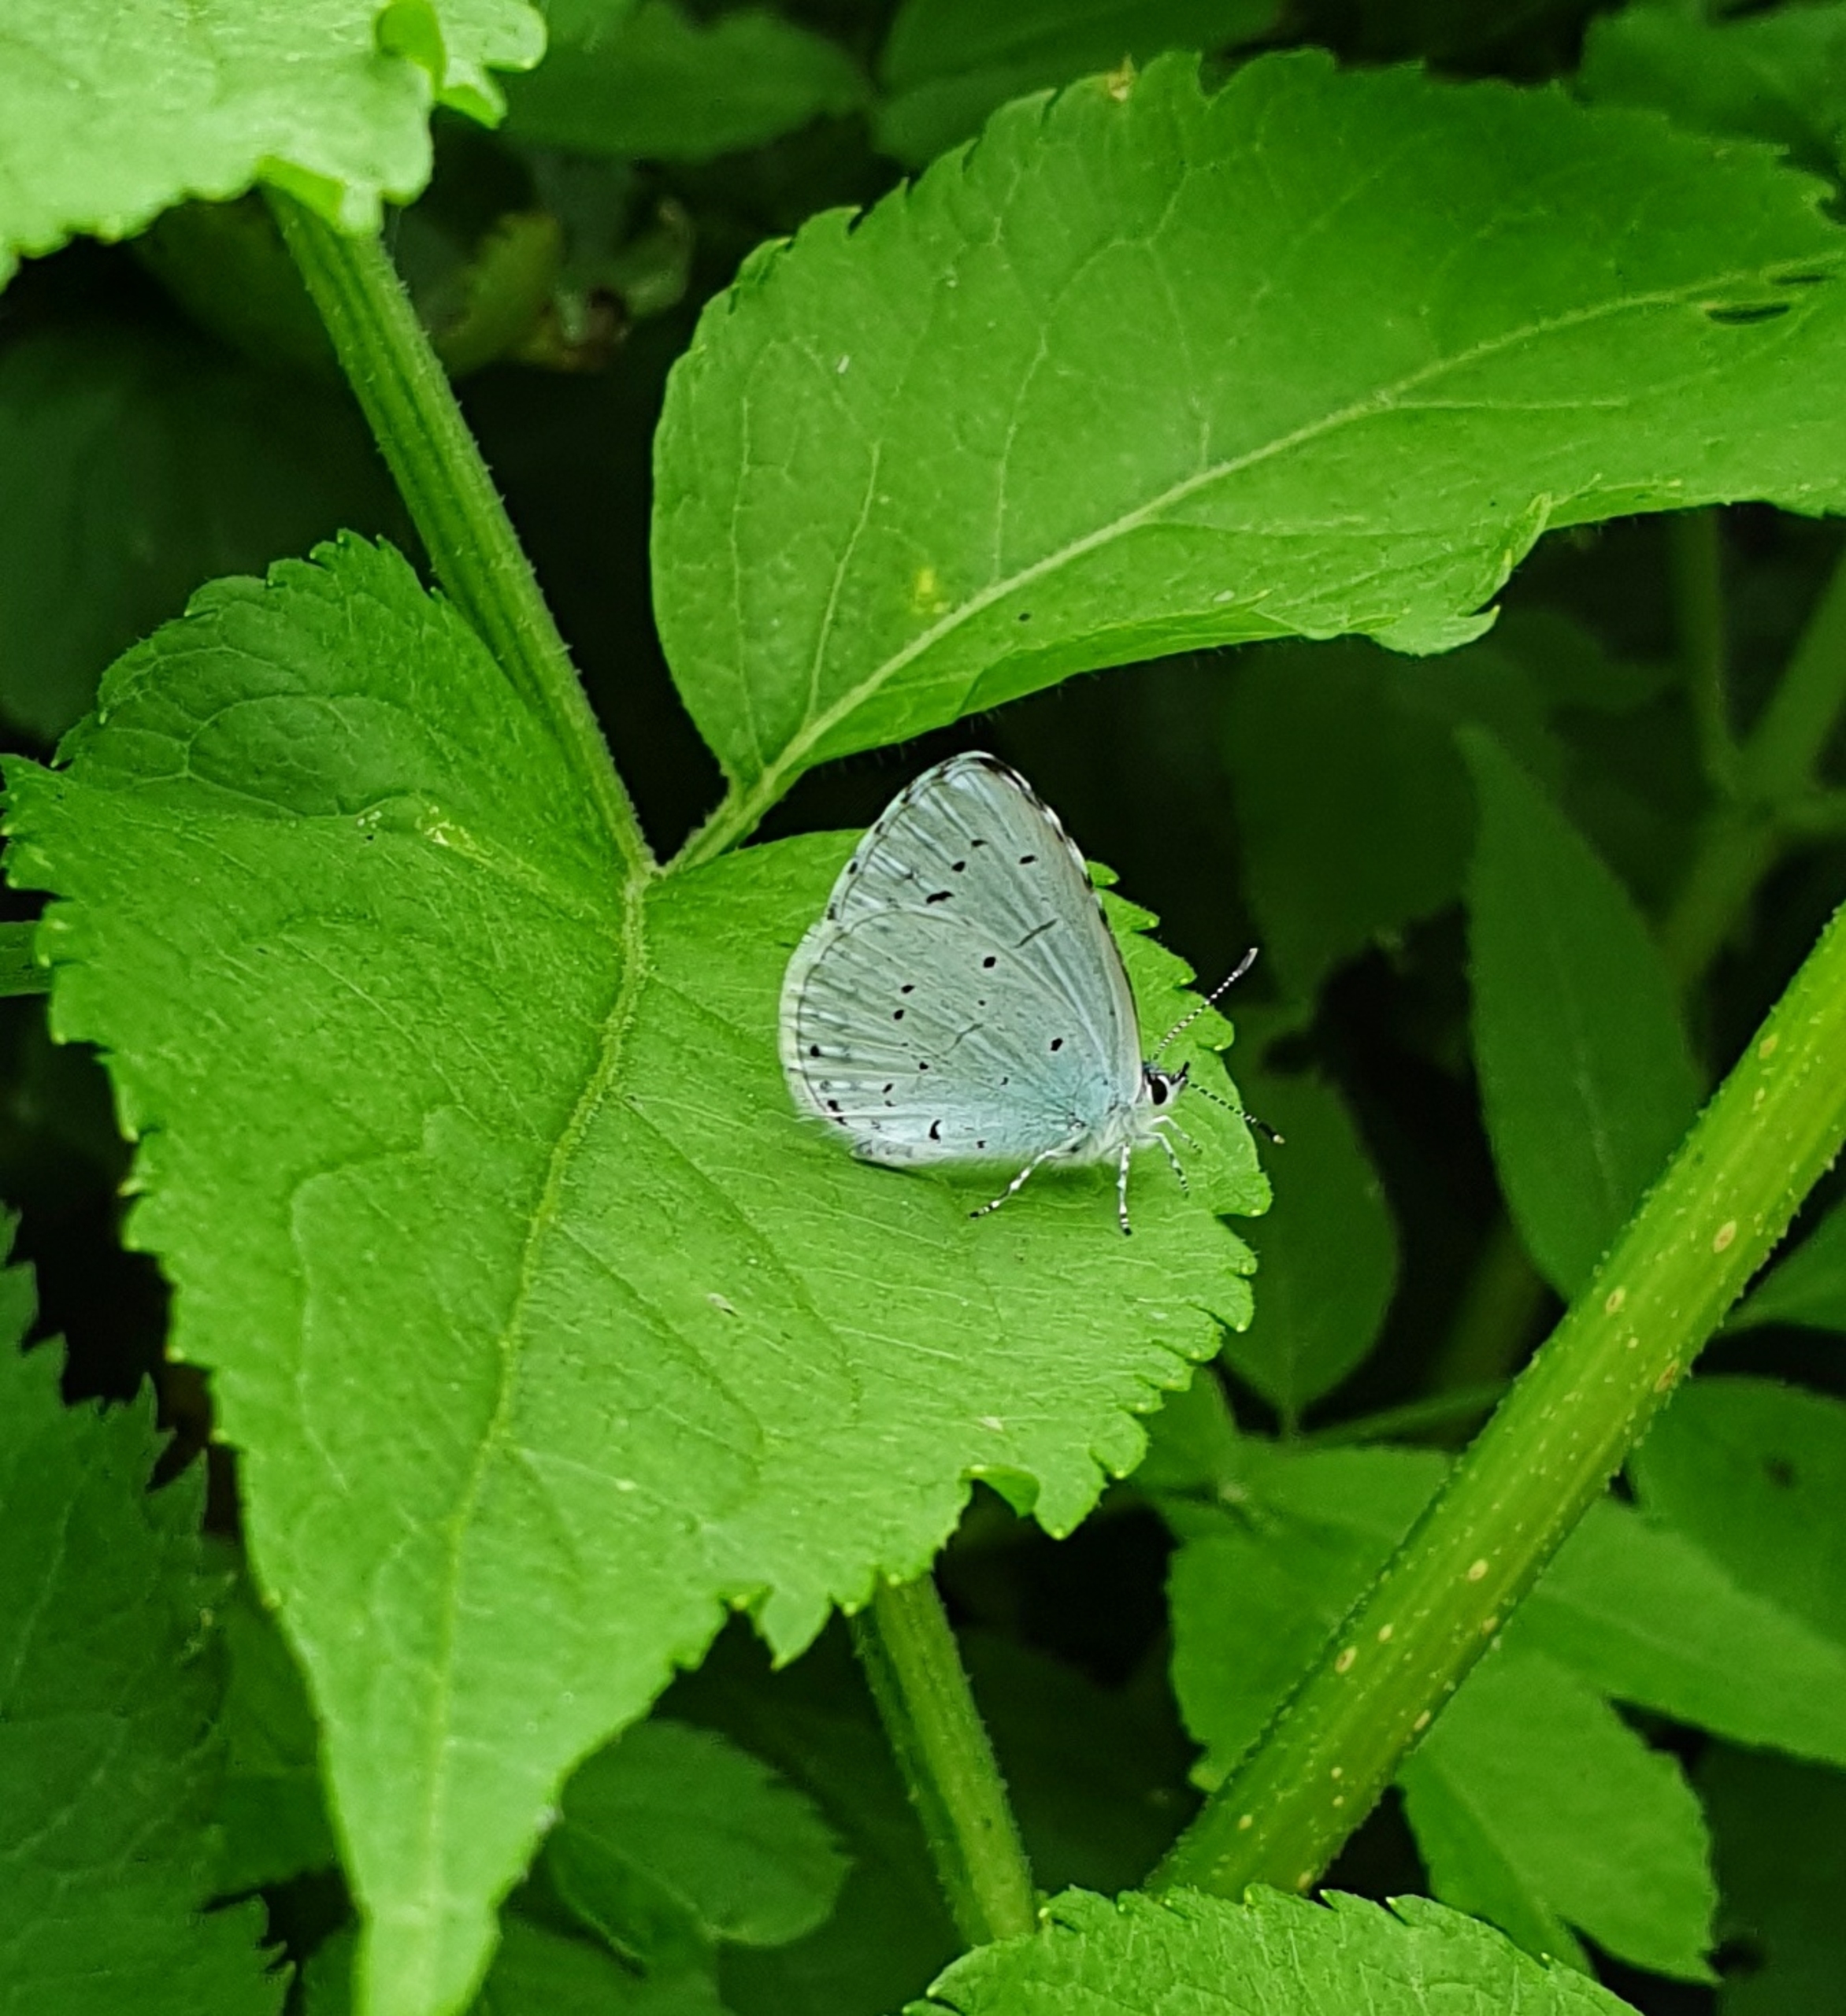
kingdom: Animalia
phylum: Arthropoda
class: Insecta
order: Lepidoptera
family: Lycaenidae
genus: Celastrina
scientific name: Celastrina argiolus
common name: Skovblåfugl
